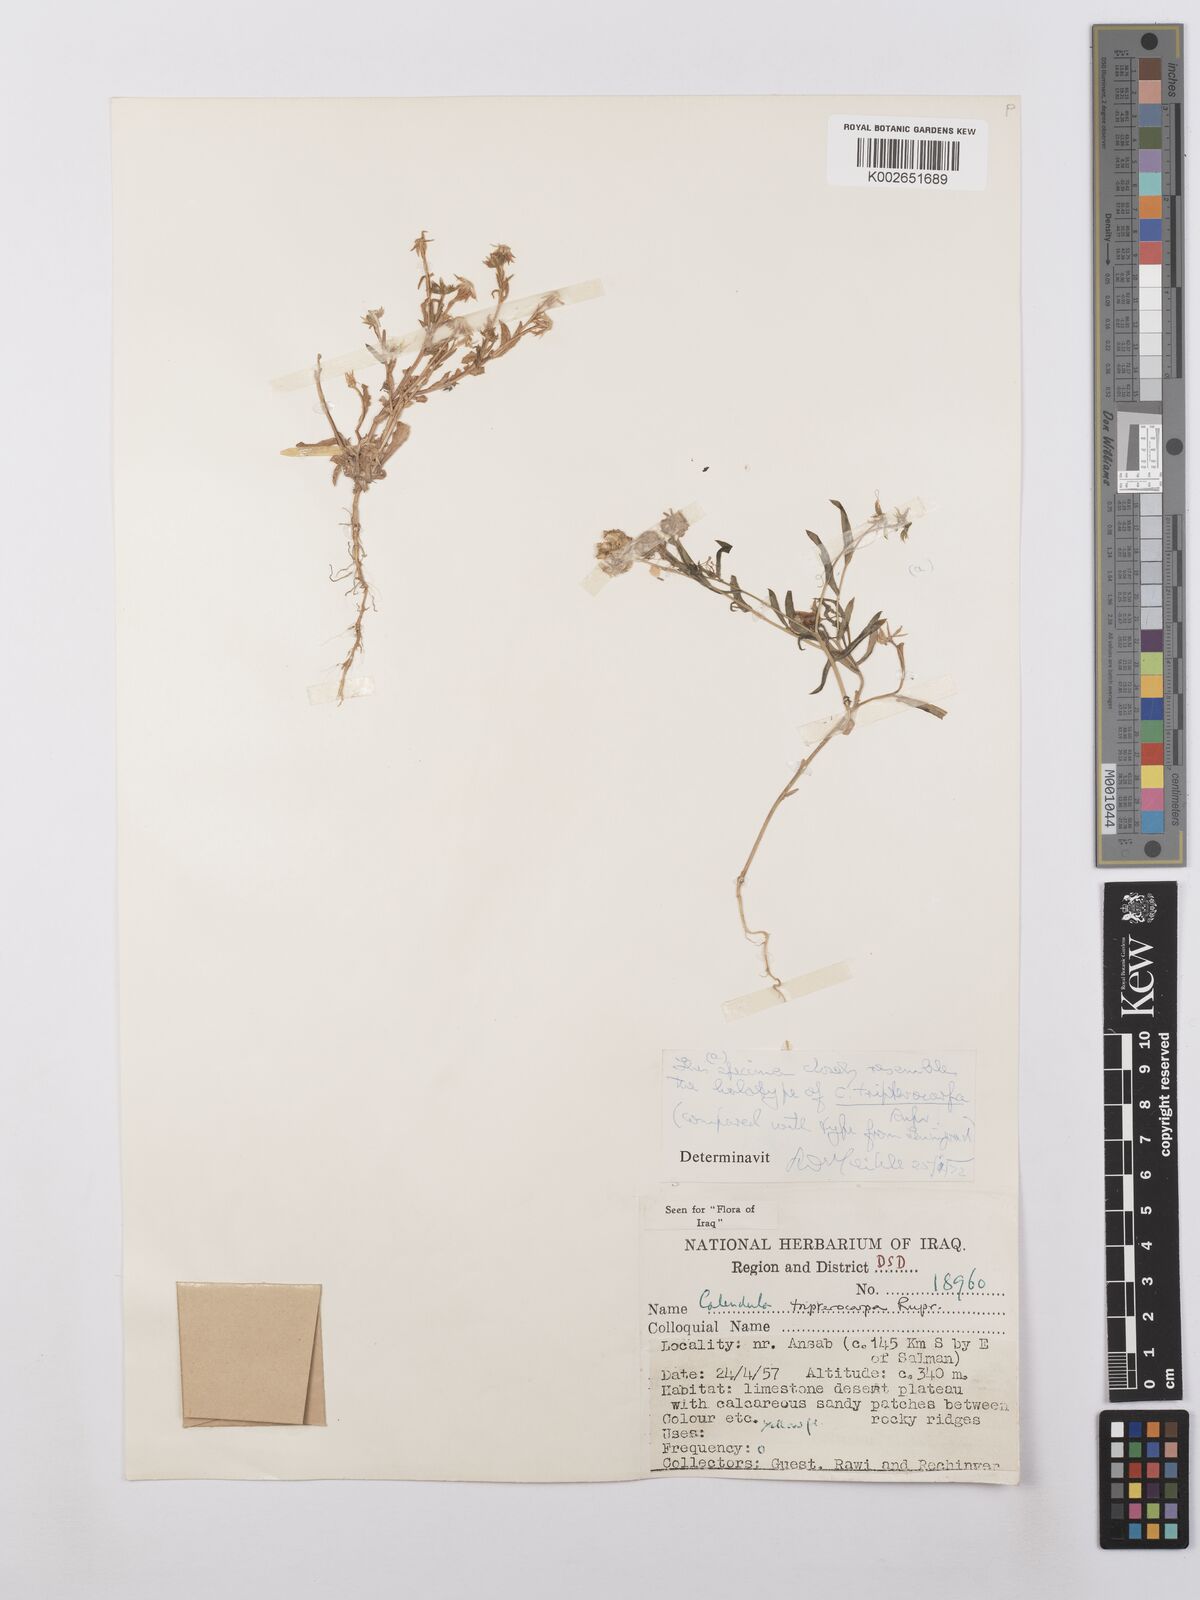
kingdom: Plantae
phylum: Tracheophyta
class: Magnoliopsida
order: Asterales
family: Asteraceae
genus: Calendula
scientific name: Calendula tripterocarpa
